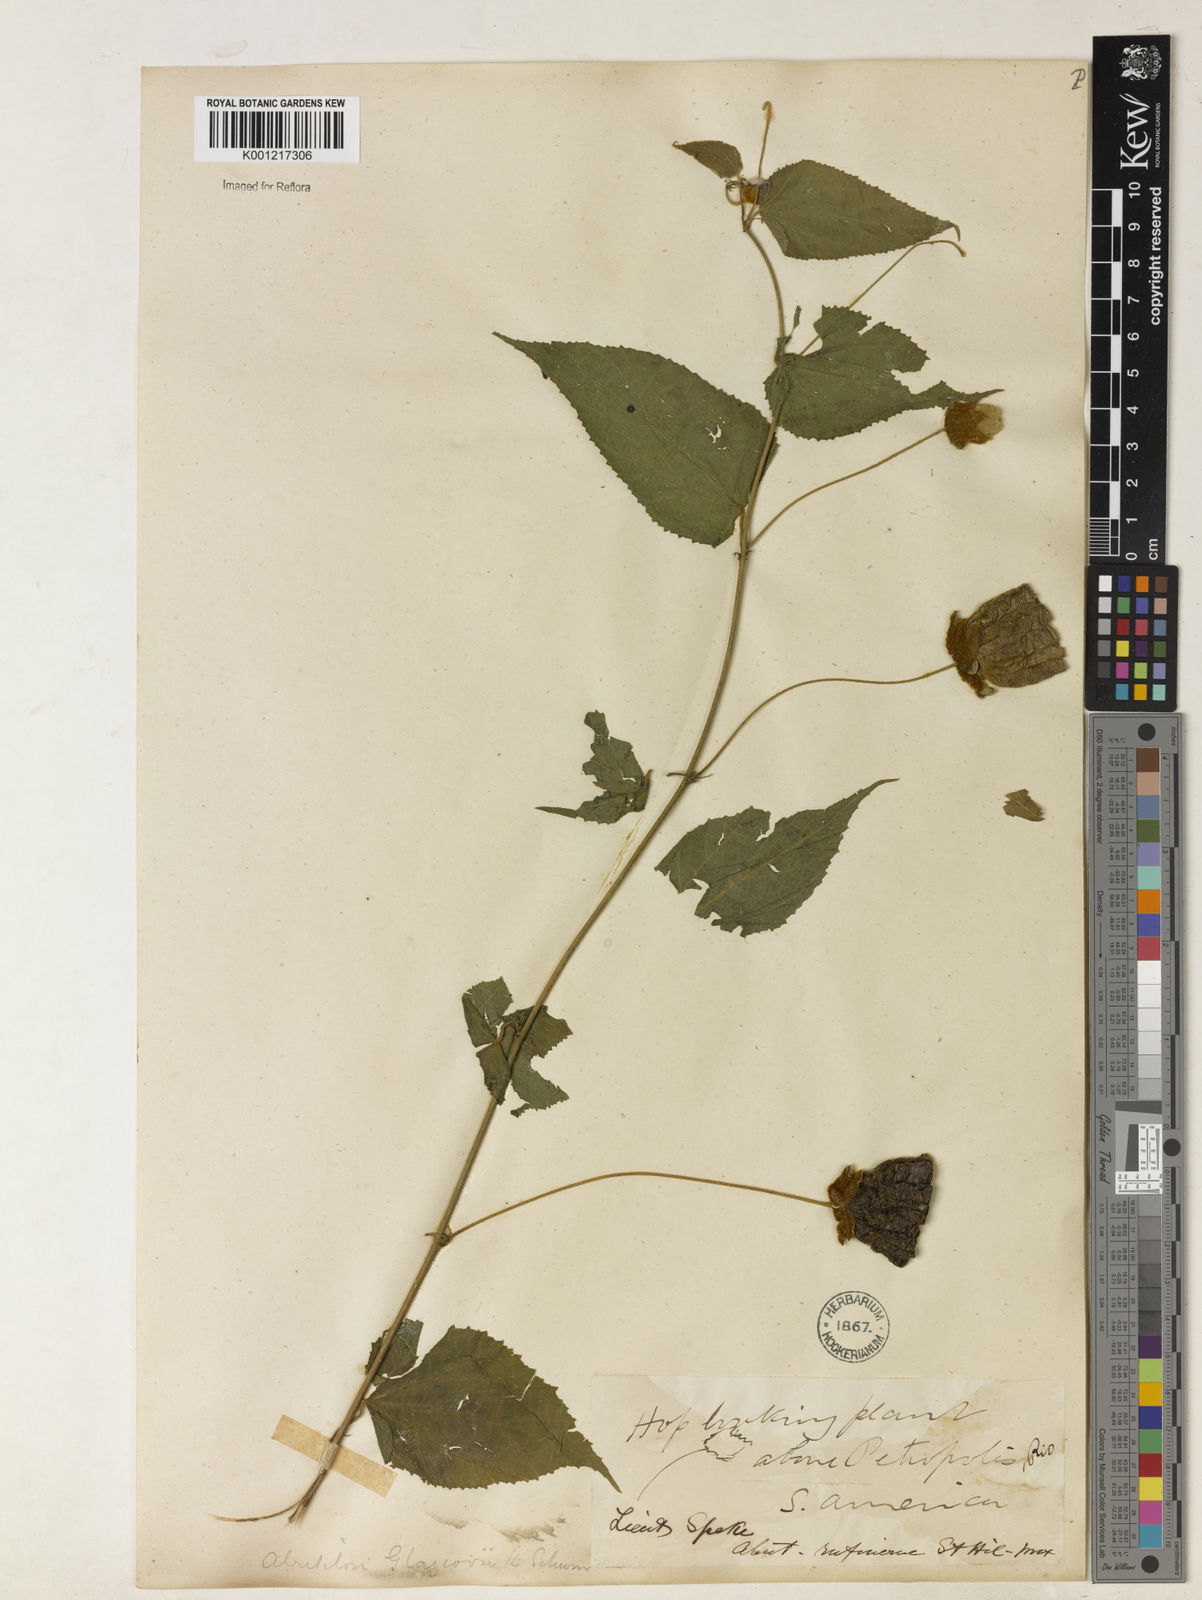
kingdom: Plantae
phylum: Tracheophyta
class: Magnoliopsida
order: Malvales
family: Malvaceae
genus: Callianthe
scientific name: Callianthe glaziovii
